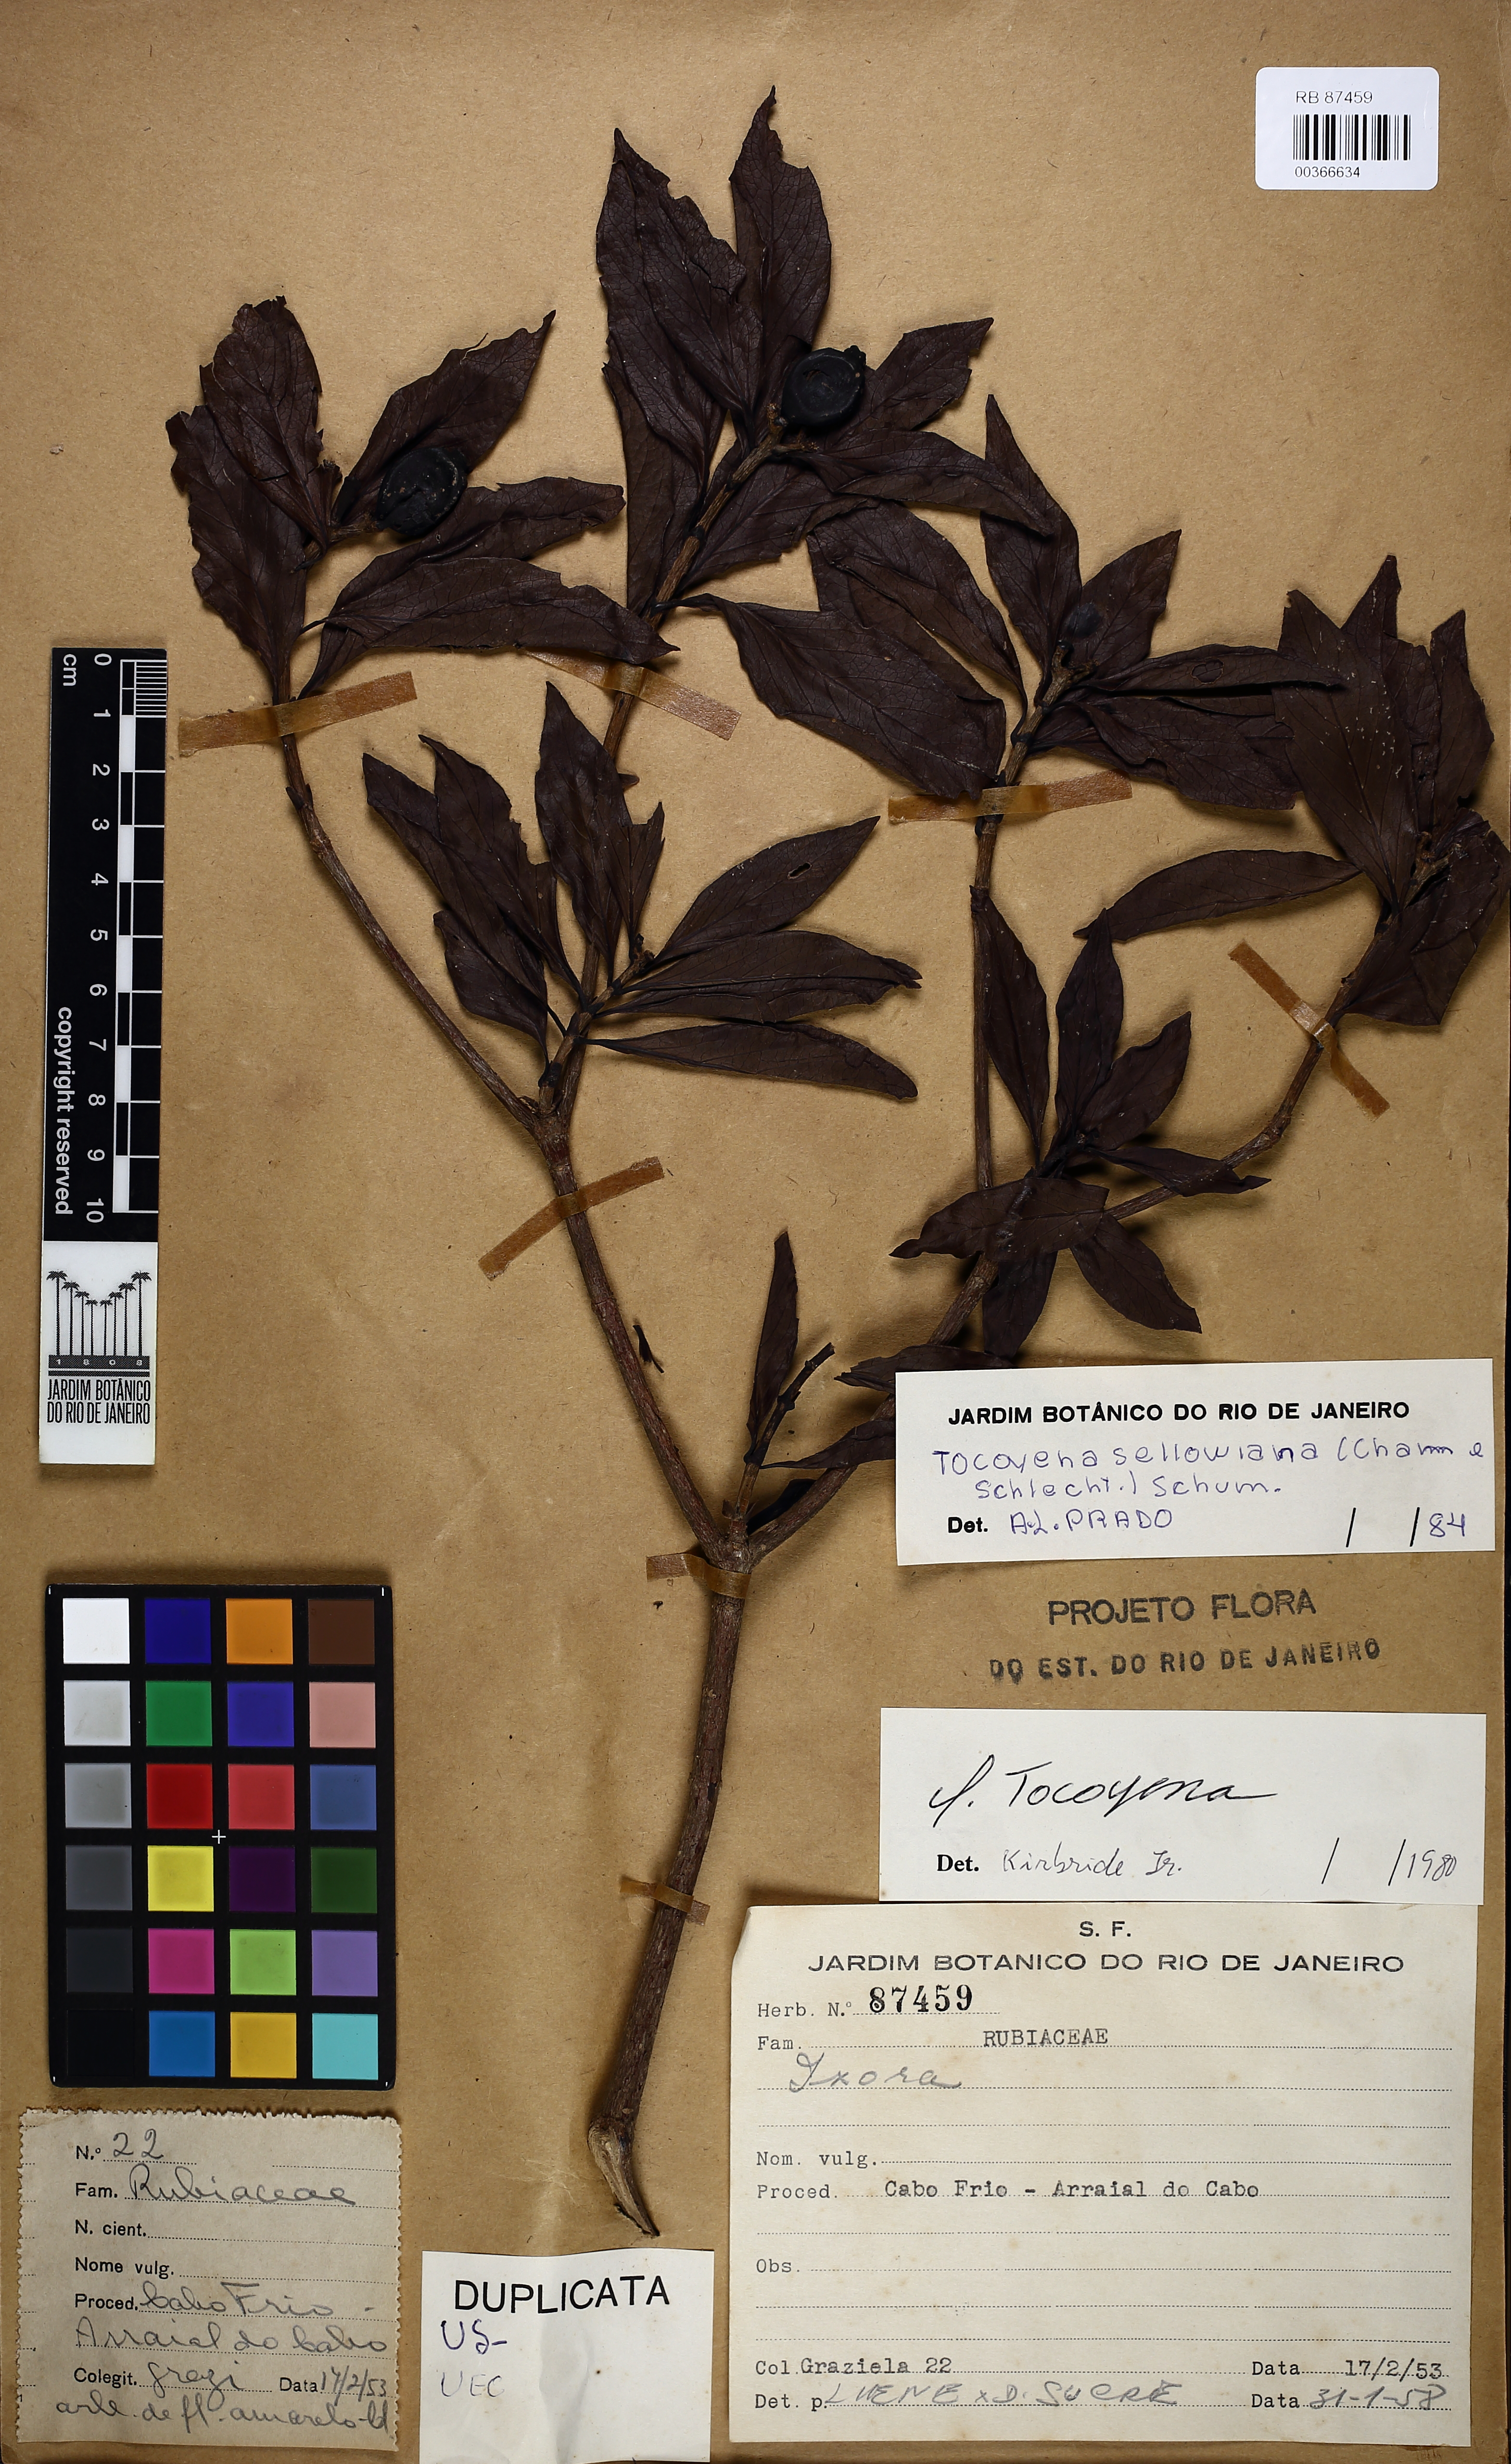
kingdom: Plantae
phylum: Tracheophyta
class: Magnoliopsida
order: Gentianales
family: Rubiaceae
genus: Tocoyena
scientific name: Tocoyena sellowiana
